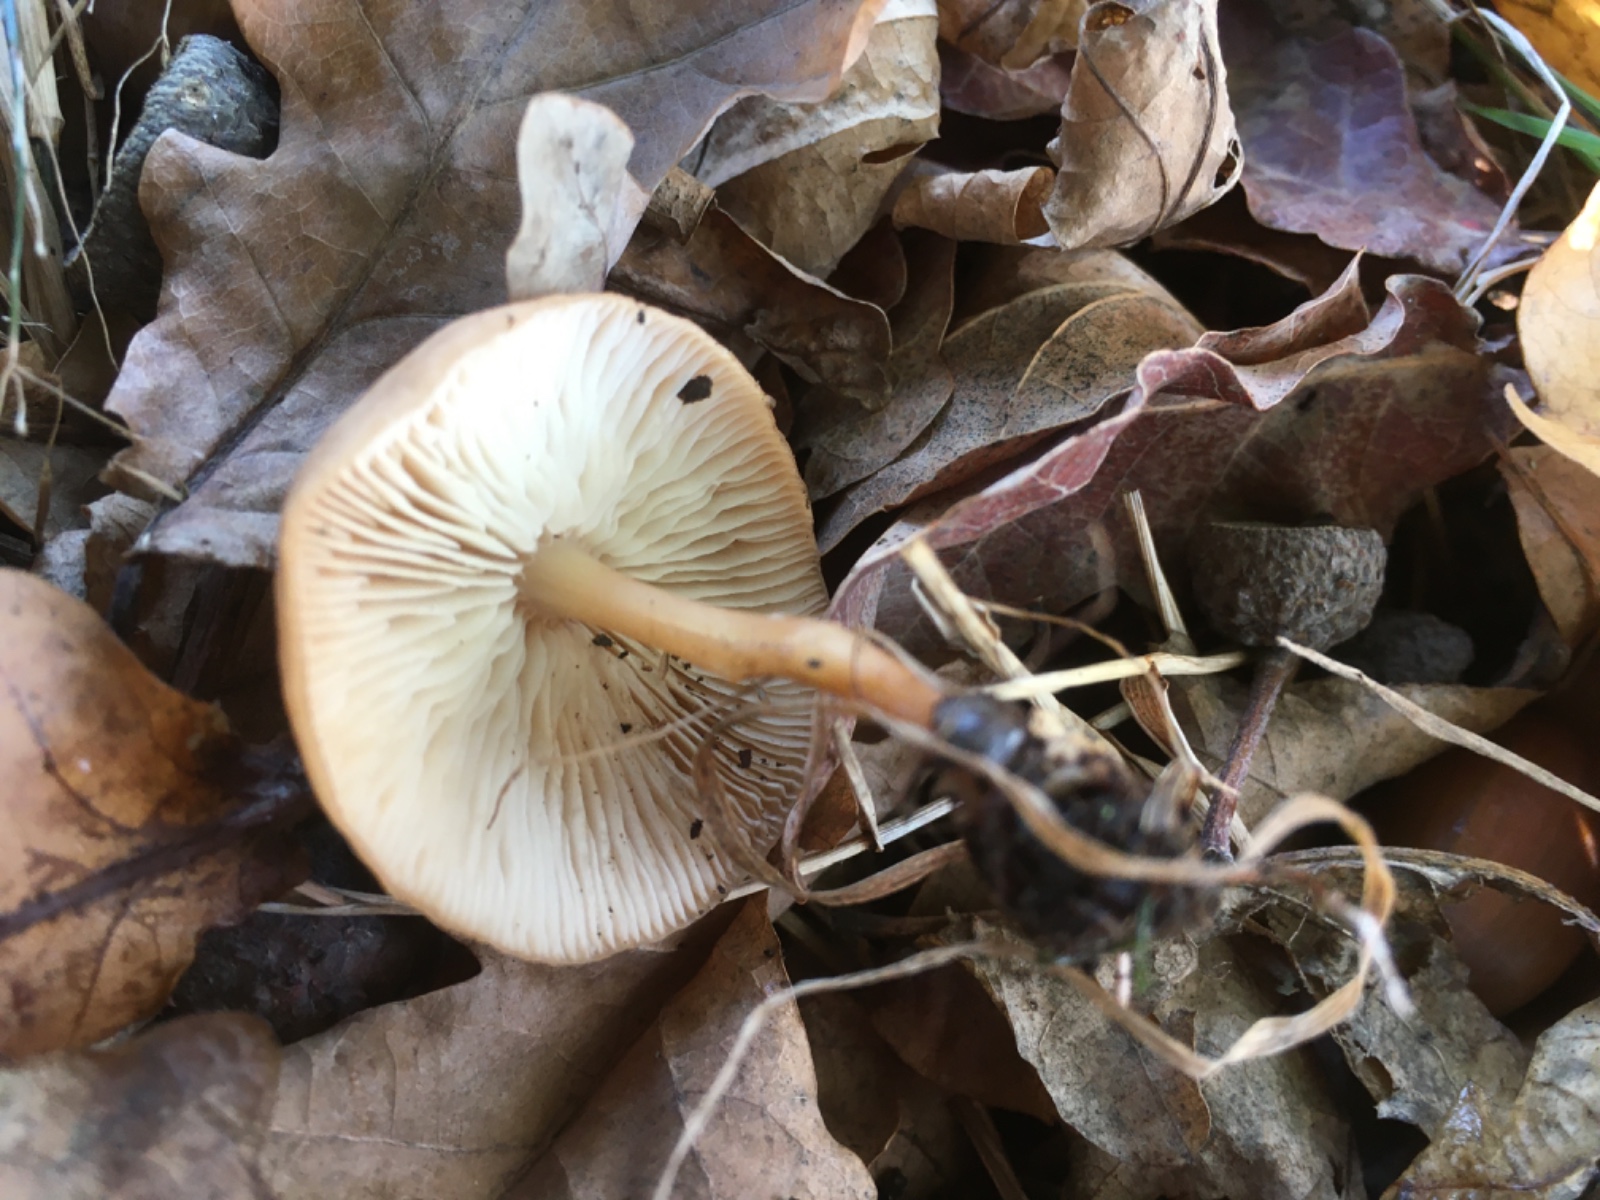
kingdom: Fungi
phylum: Basidiomycota
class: Agaricomycetes
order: Agaricales
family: Omphalotaceae
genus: Collybiopsis
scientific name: Collybiopsis peronata
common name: bestøvlet fladhat
